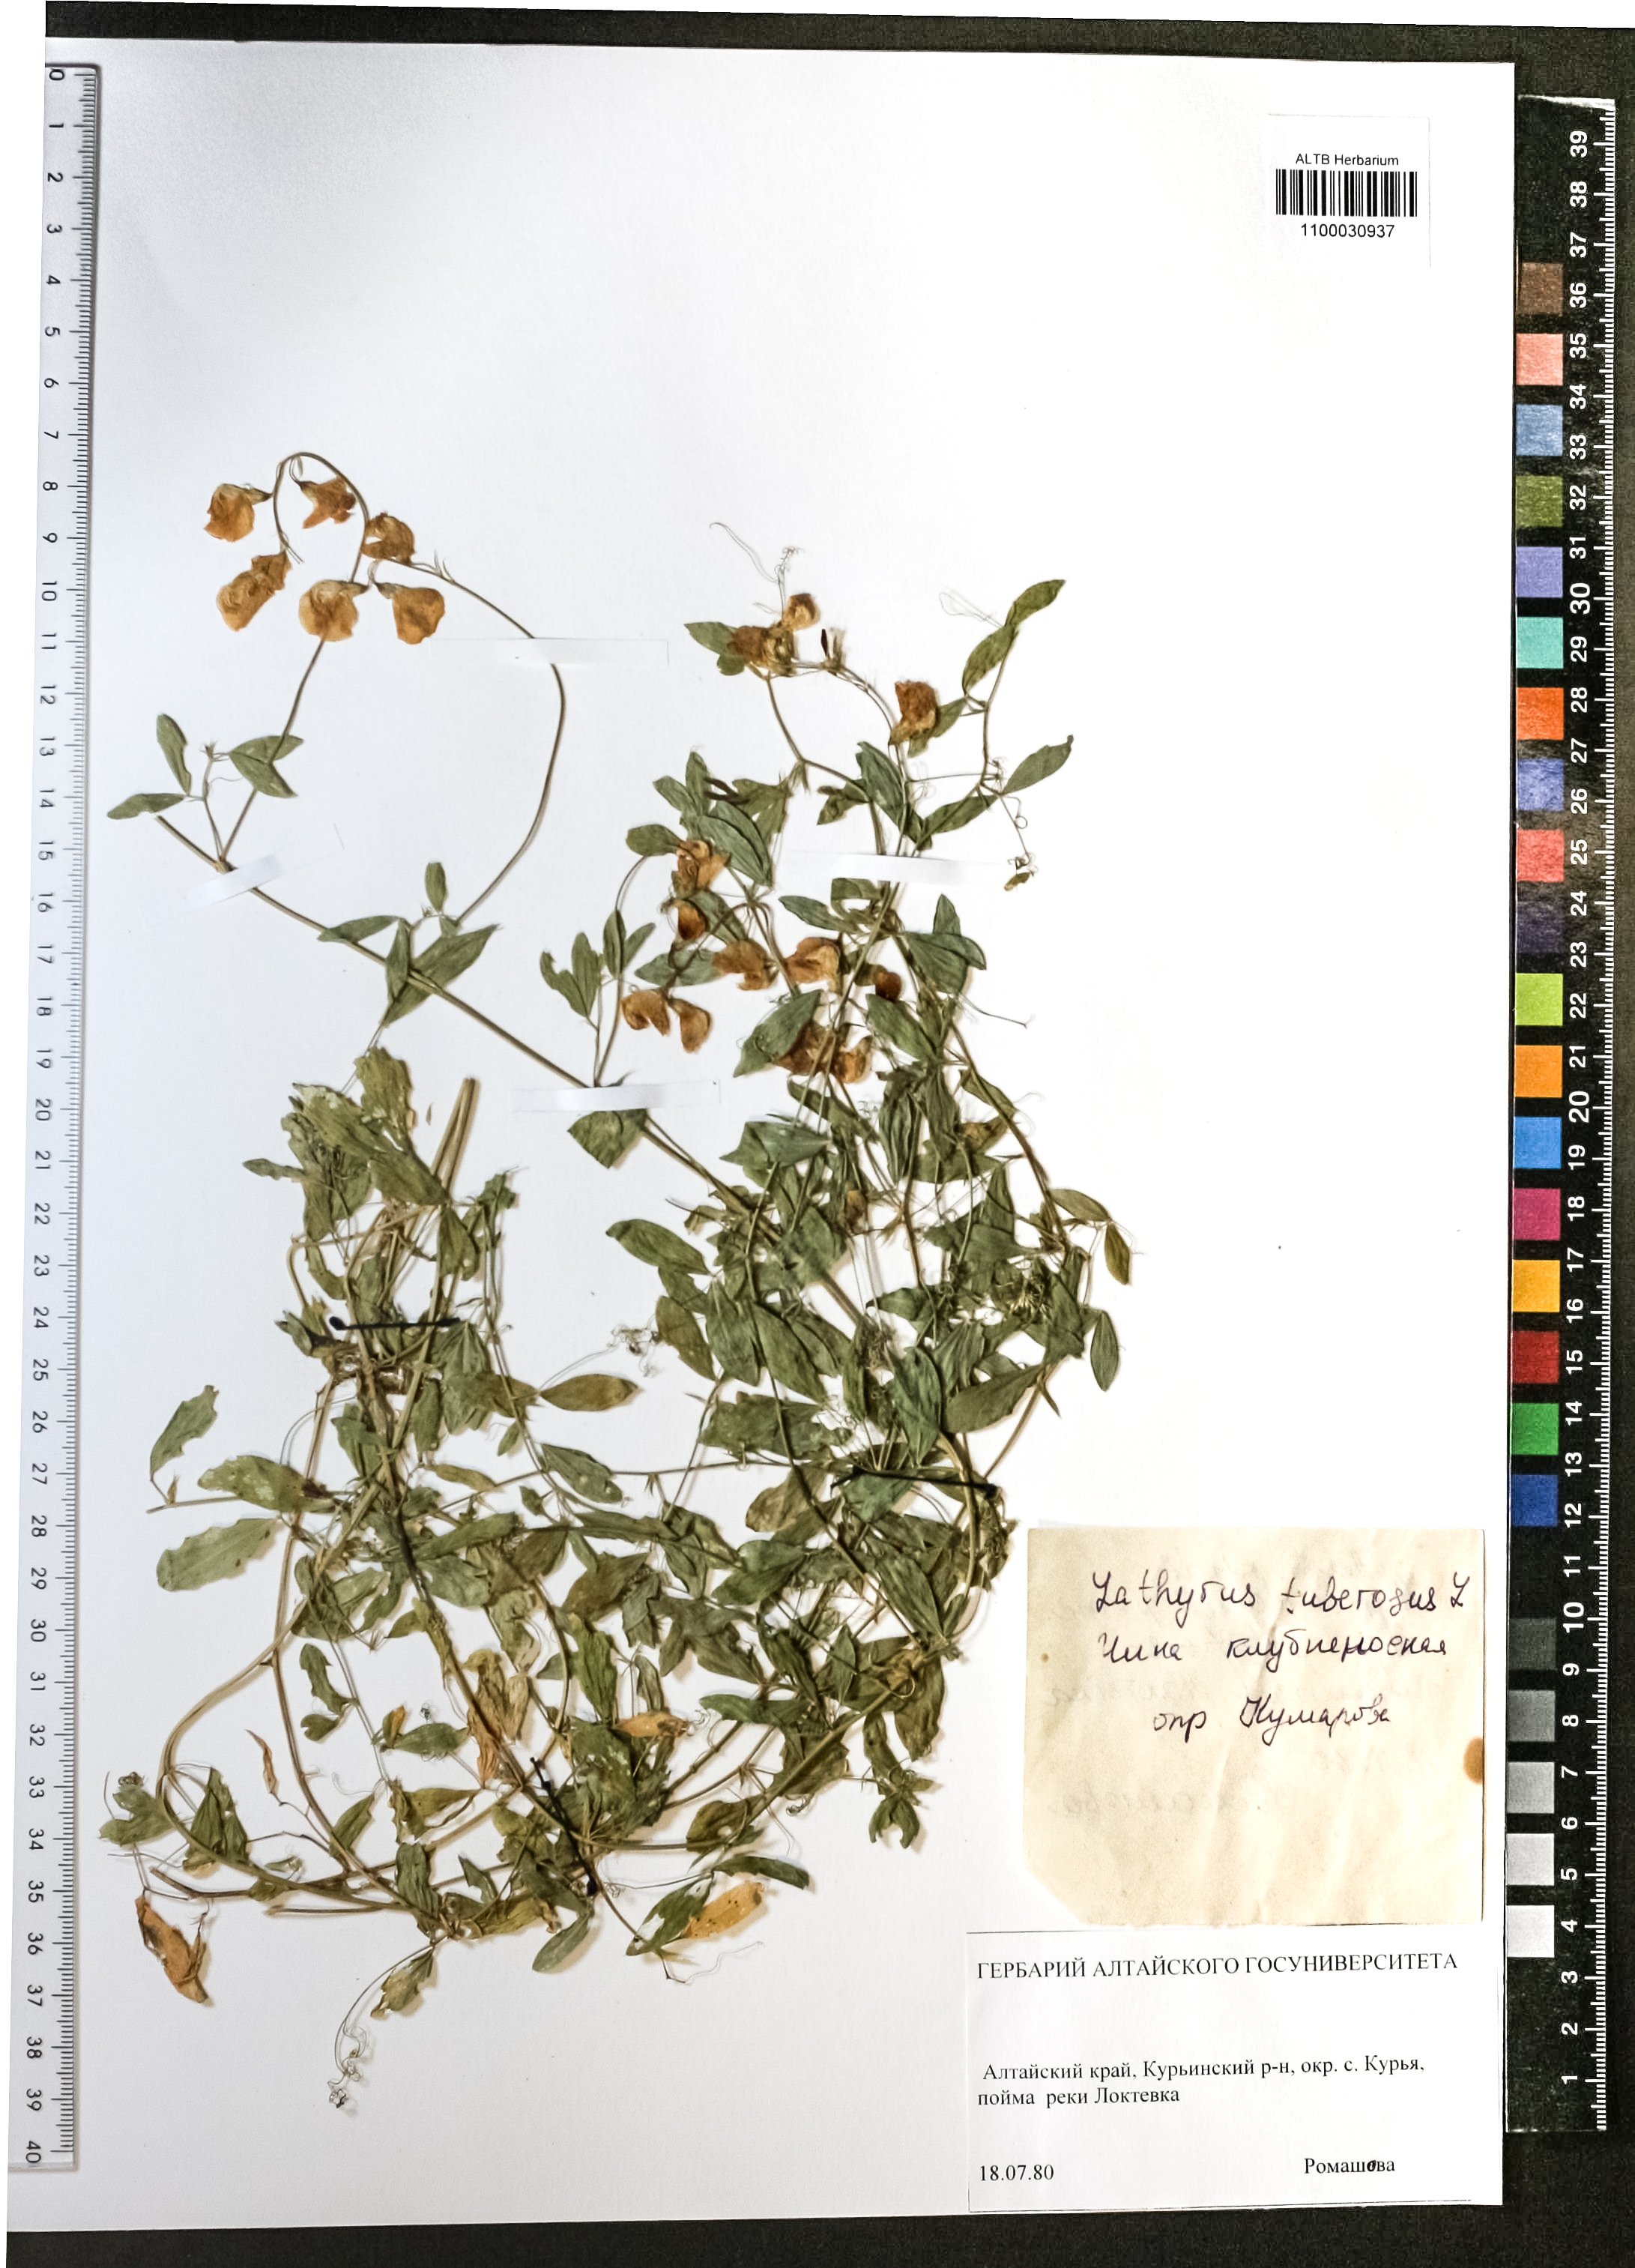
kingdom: Plantae
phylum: Tracheophyta
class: Magnoliopsida
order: Fabales
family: Fabaceae
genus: Lathyrus
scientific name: Lathyrus tuberosus
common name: Tuberous pea
